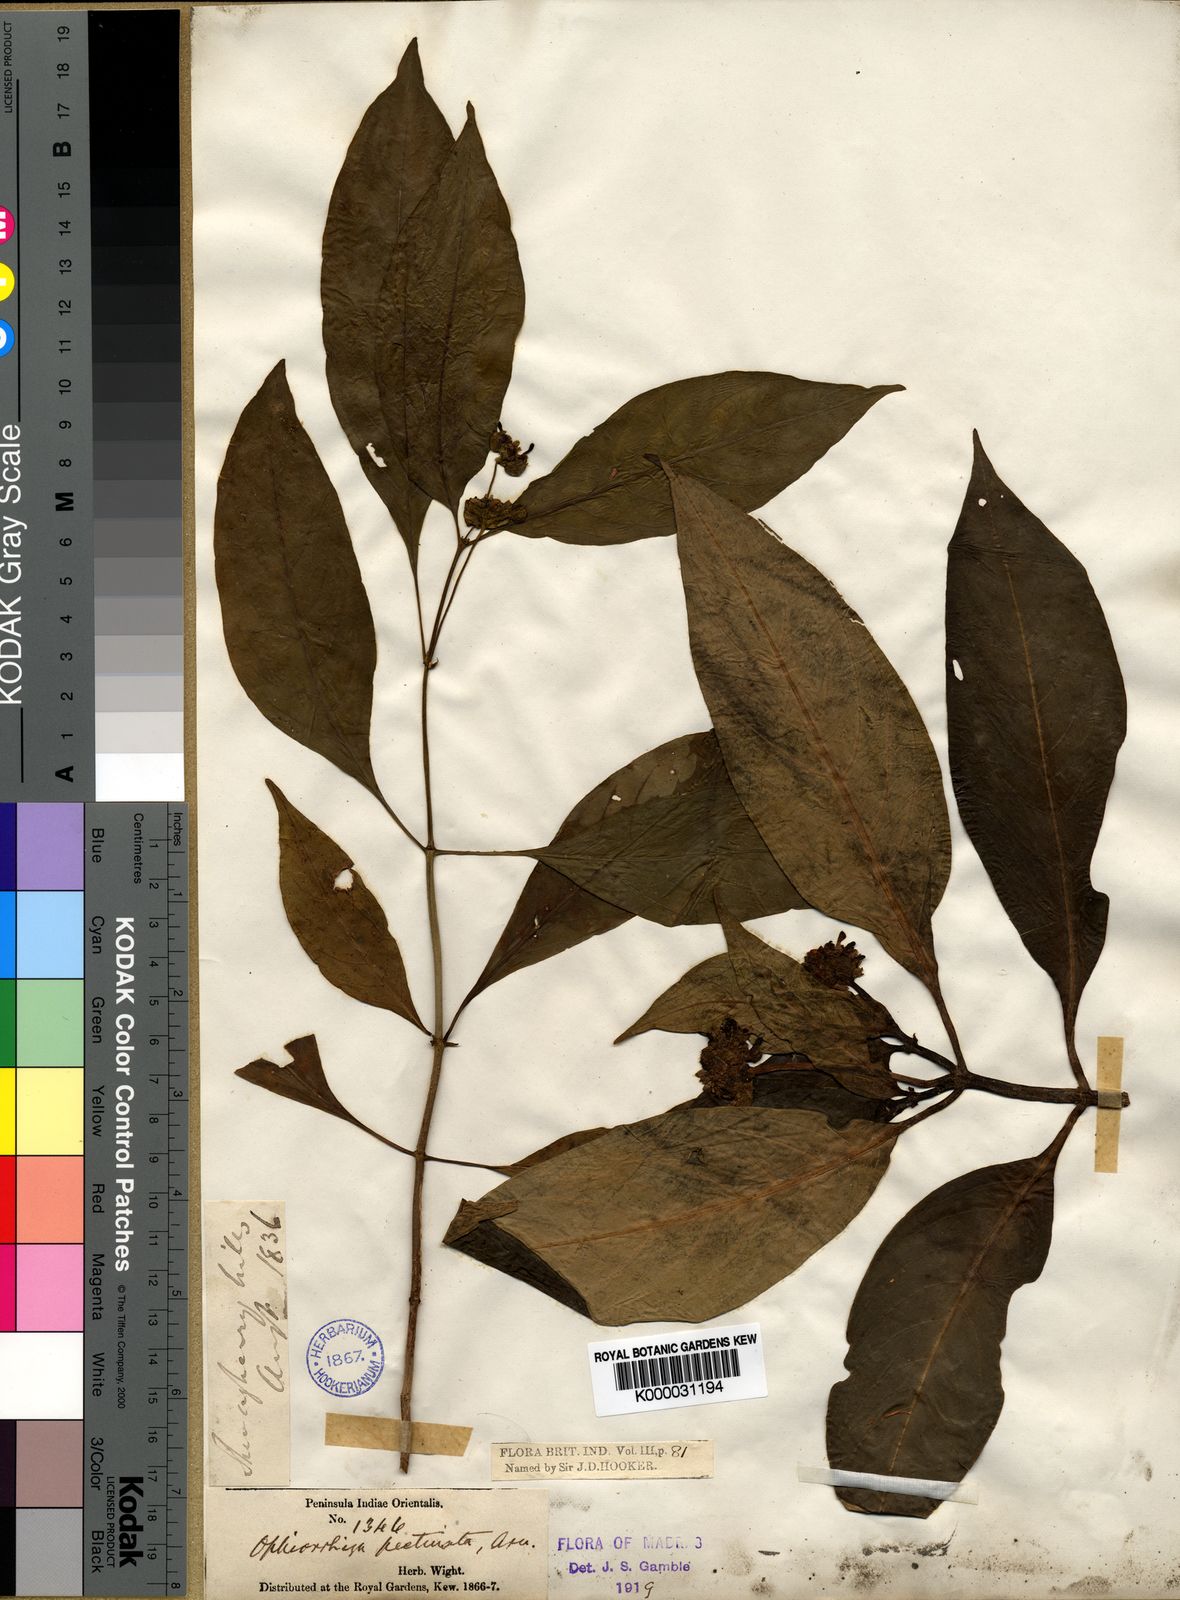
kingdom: Plantae
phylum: Tracheophyta
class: Magnoliopsida
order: Gentianales
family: Rubiaceae
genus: Ophiorrhiza
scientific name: Ophiorrhiza pectinata
